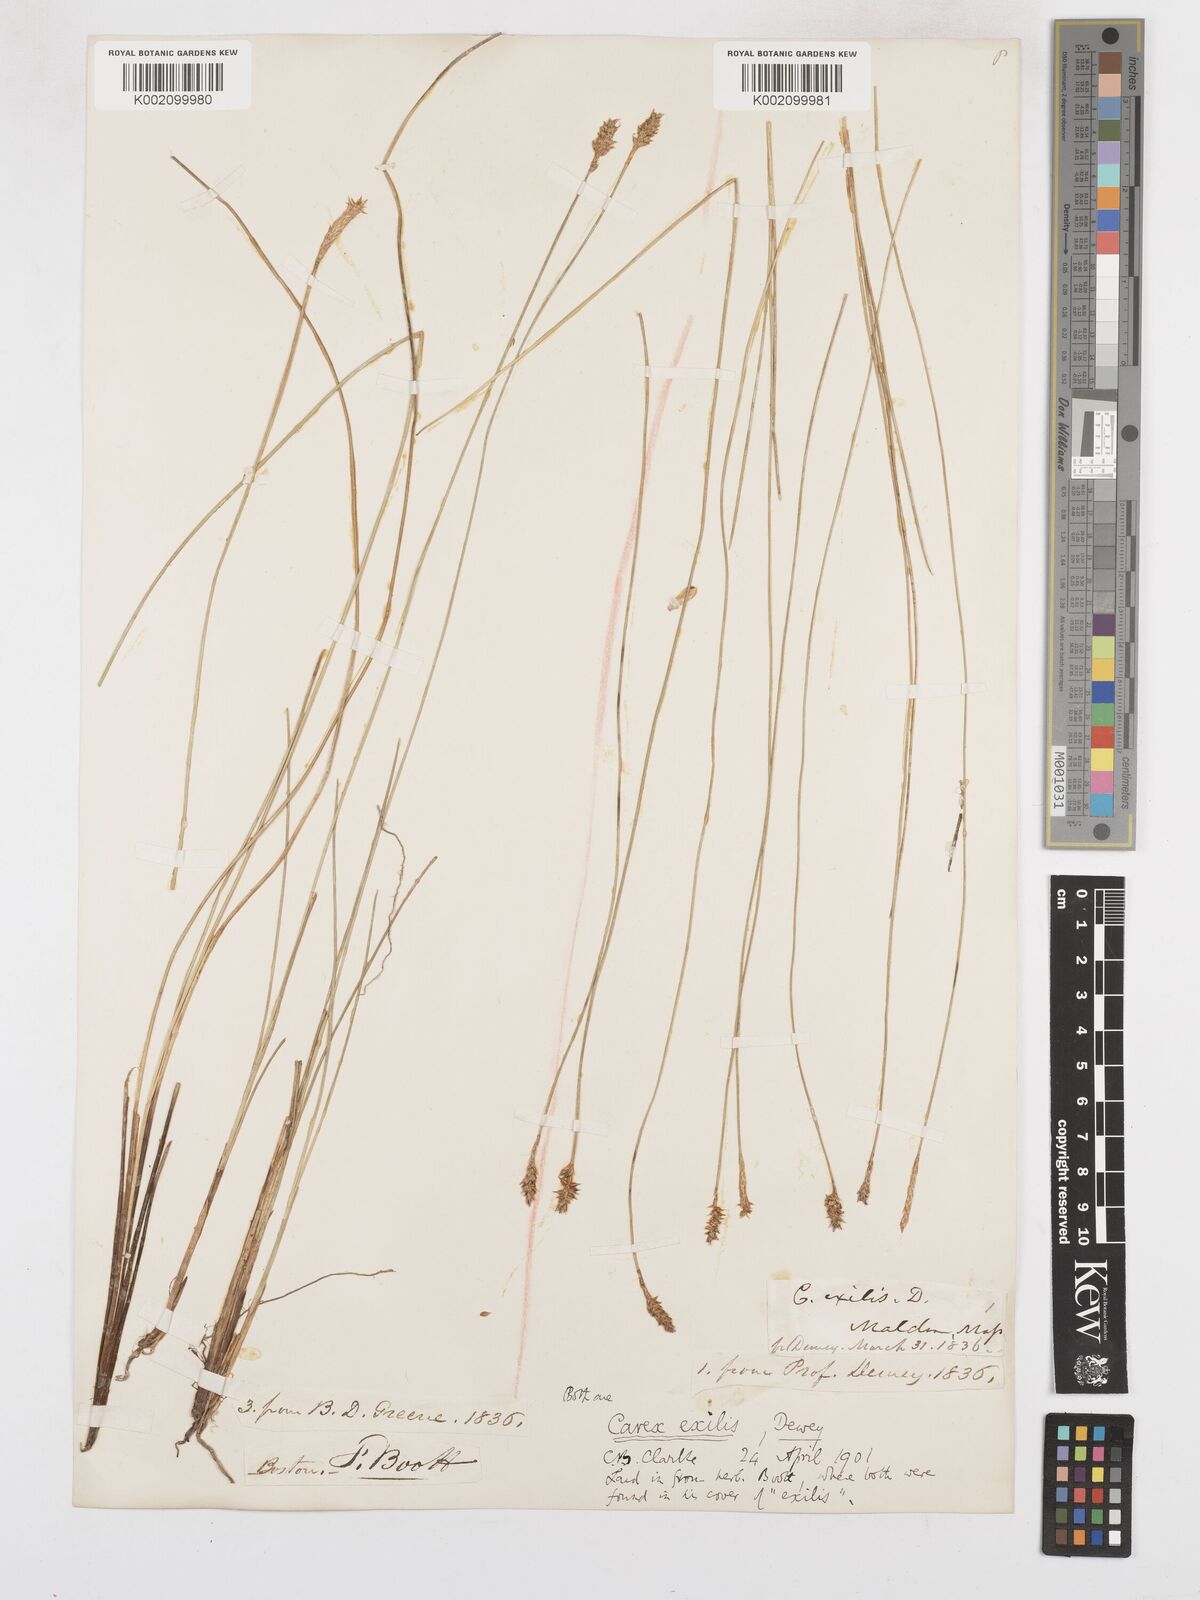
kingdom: Plantae
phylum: Tracheophyta
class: Liliopsida
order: Poales
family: Cyperaceae
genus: Carex
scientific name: Carex exilis
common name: Coastal sedge
